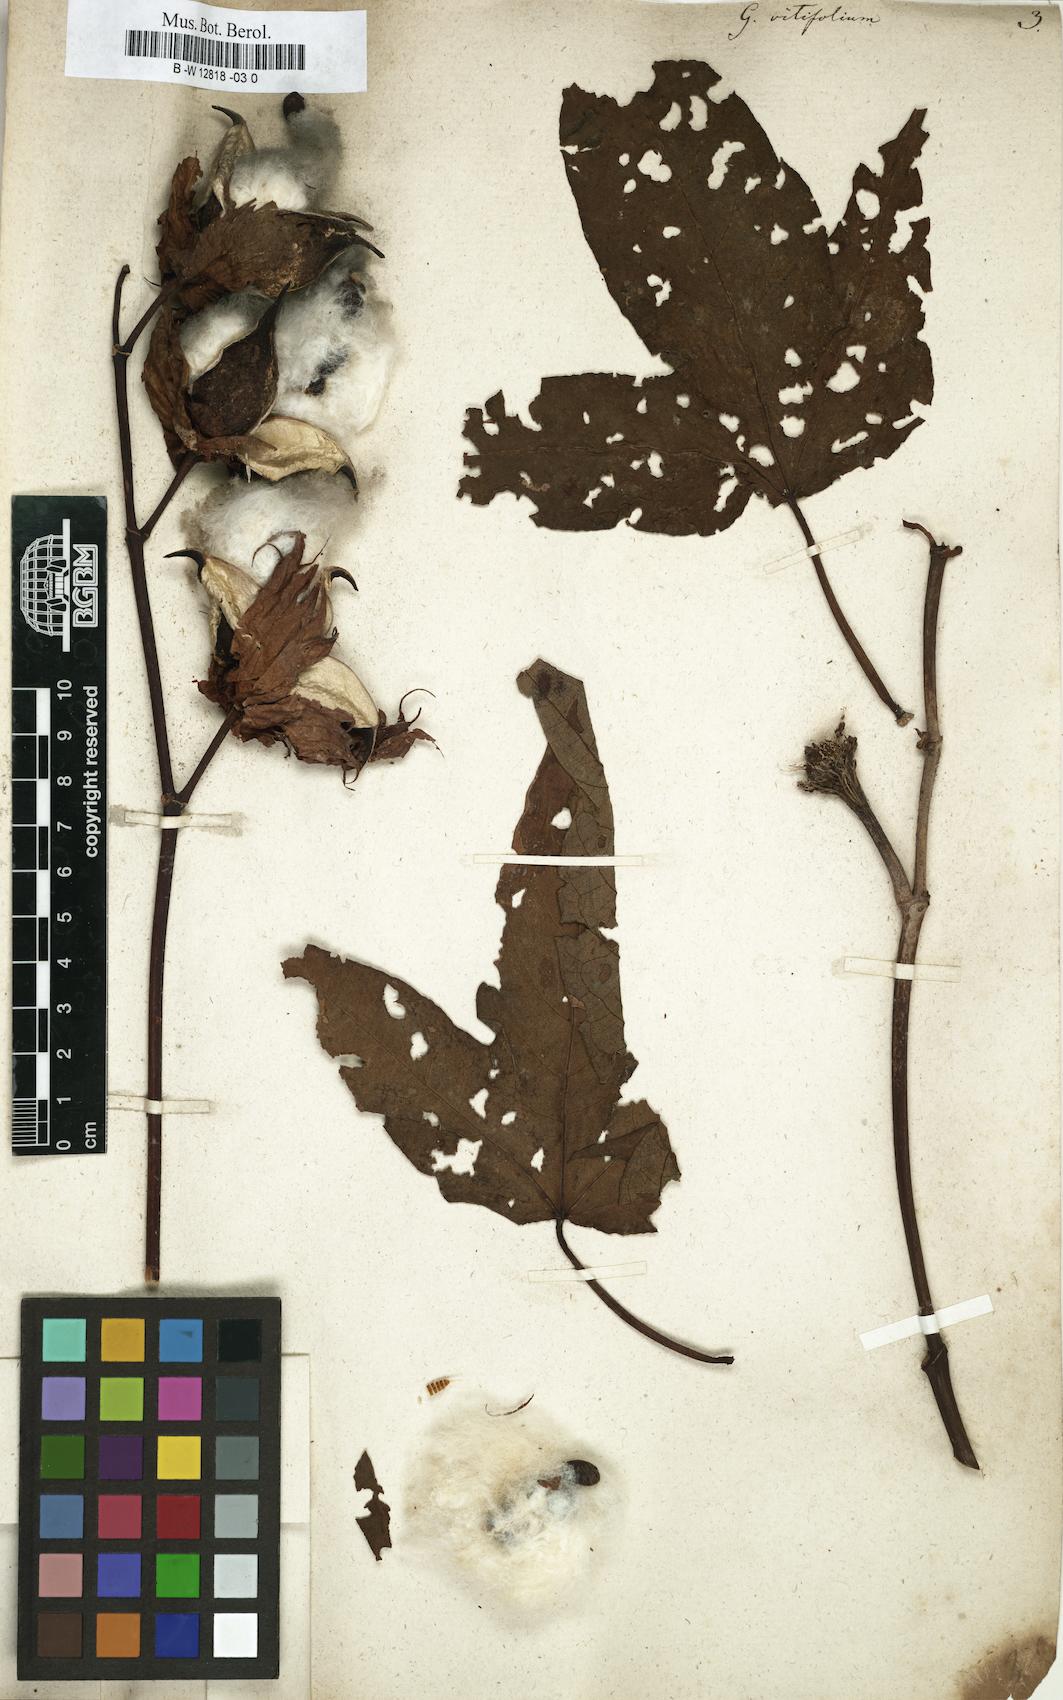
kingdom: Plantae
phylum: Tracheophyta
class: Magnoliopsida
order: Malvales
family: Malvaceae
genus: Gossypium
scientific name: Gossypium barbadense
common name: Creole cotton
